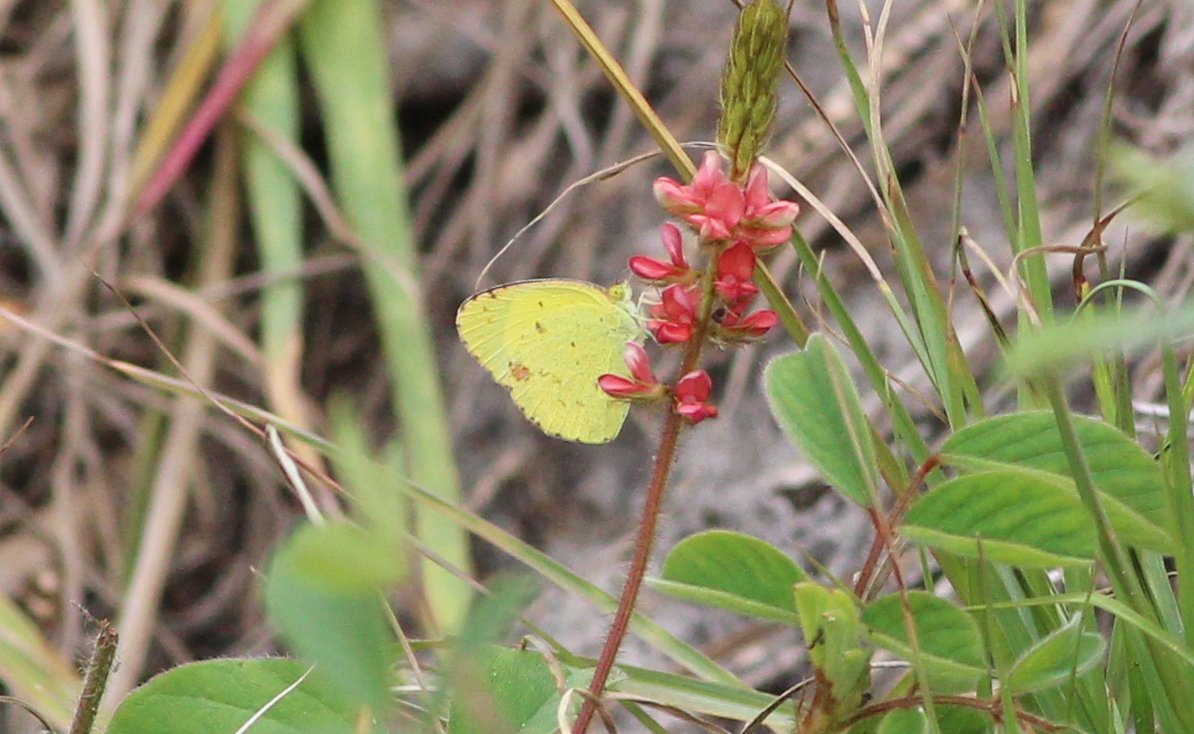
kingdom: Animalia
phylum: Arthropoda
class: Insecta
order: Lepidoptera
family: Pieridae
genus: Pyrisitia
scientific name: Pyrisitia lisa
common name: Little Yellow
